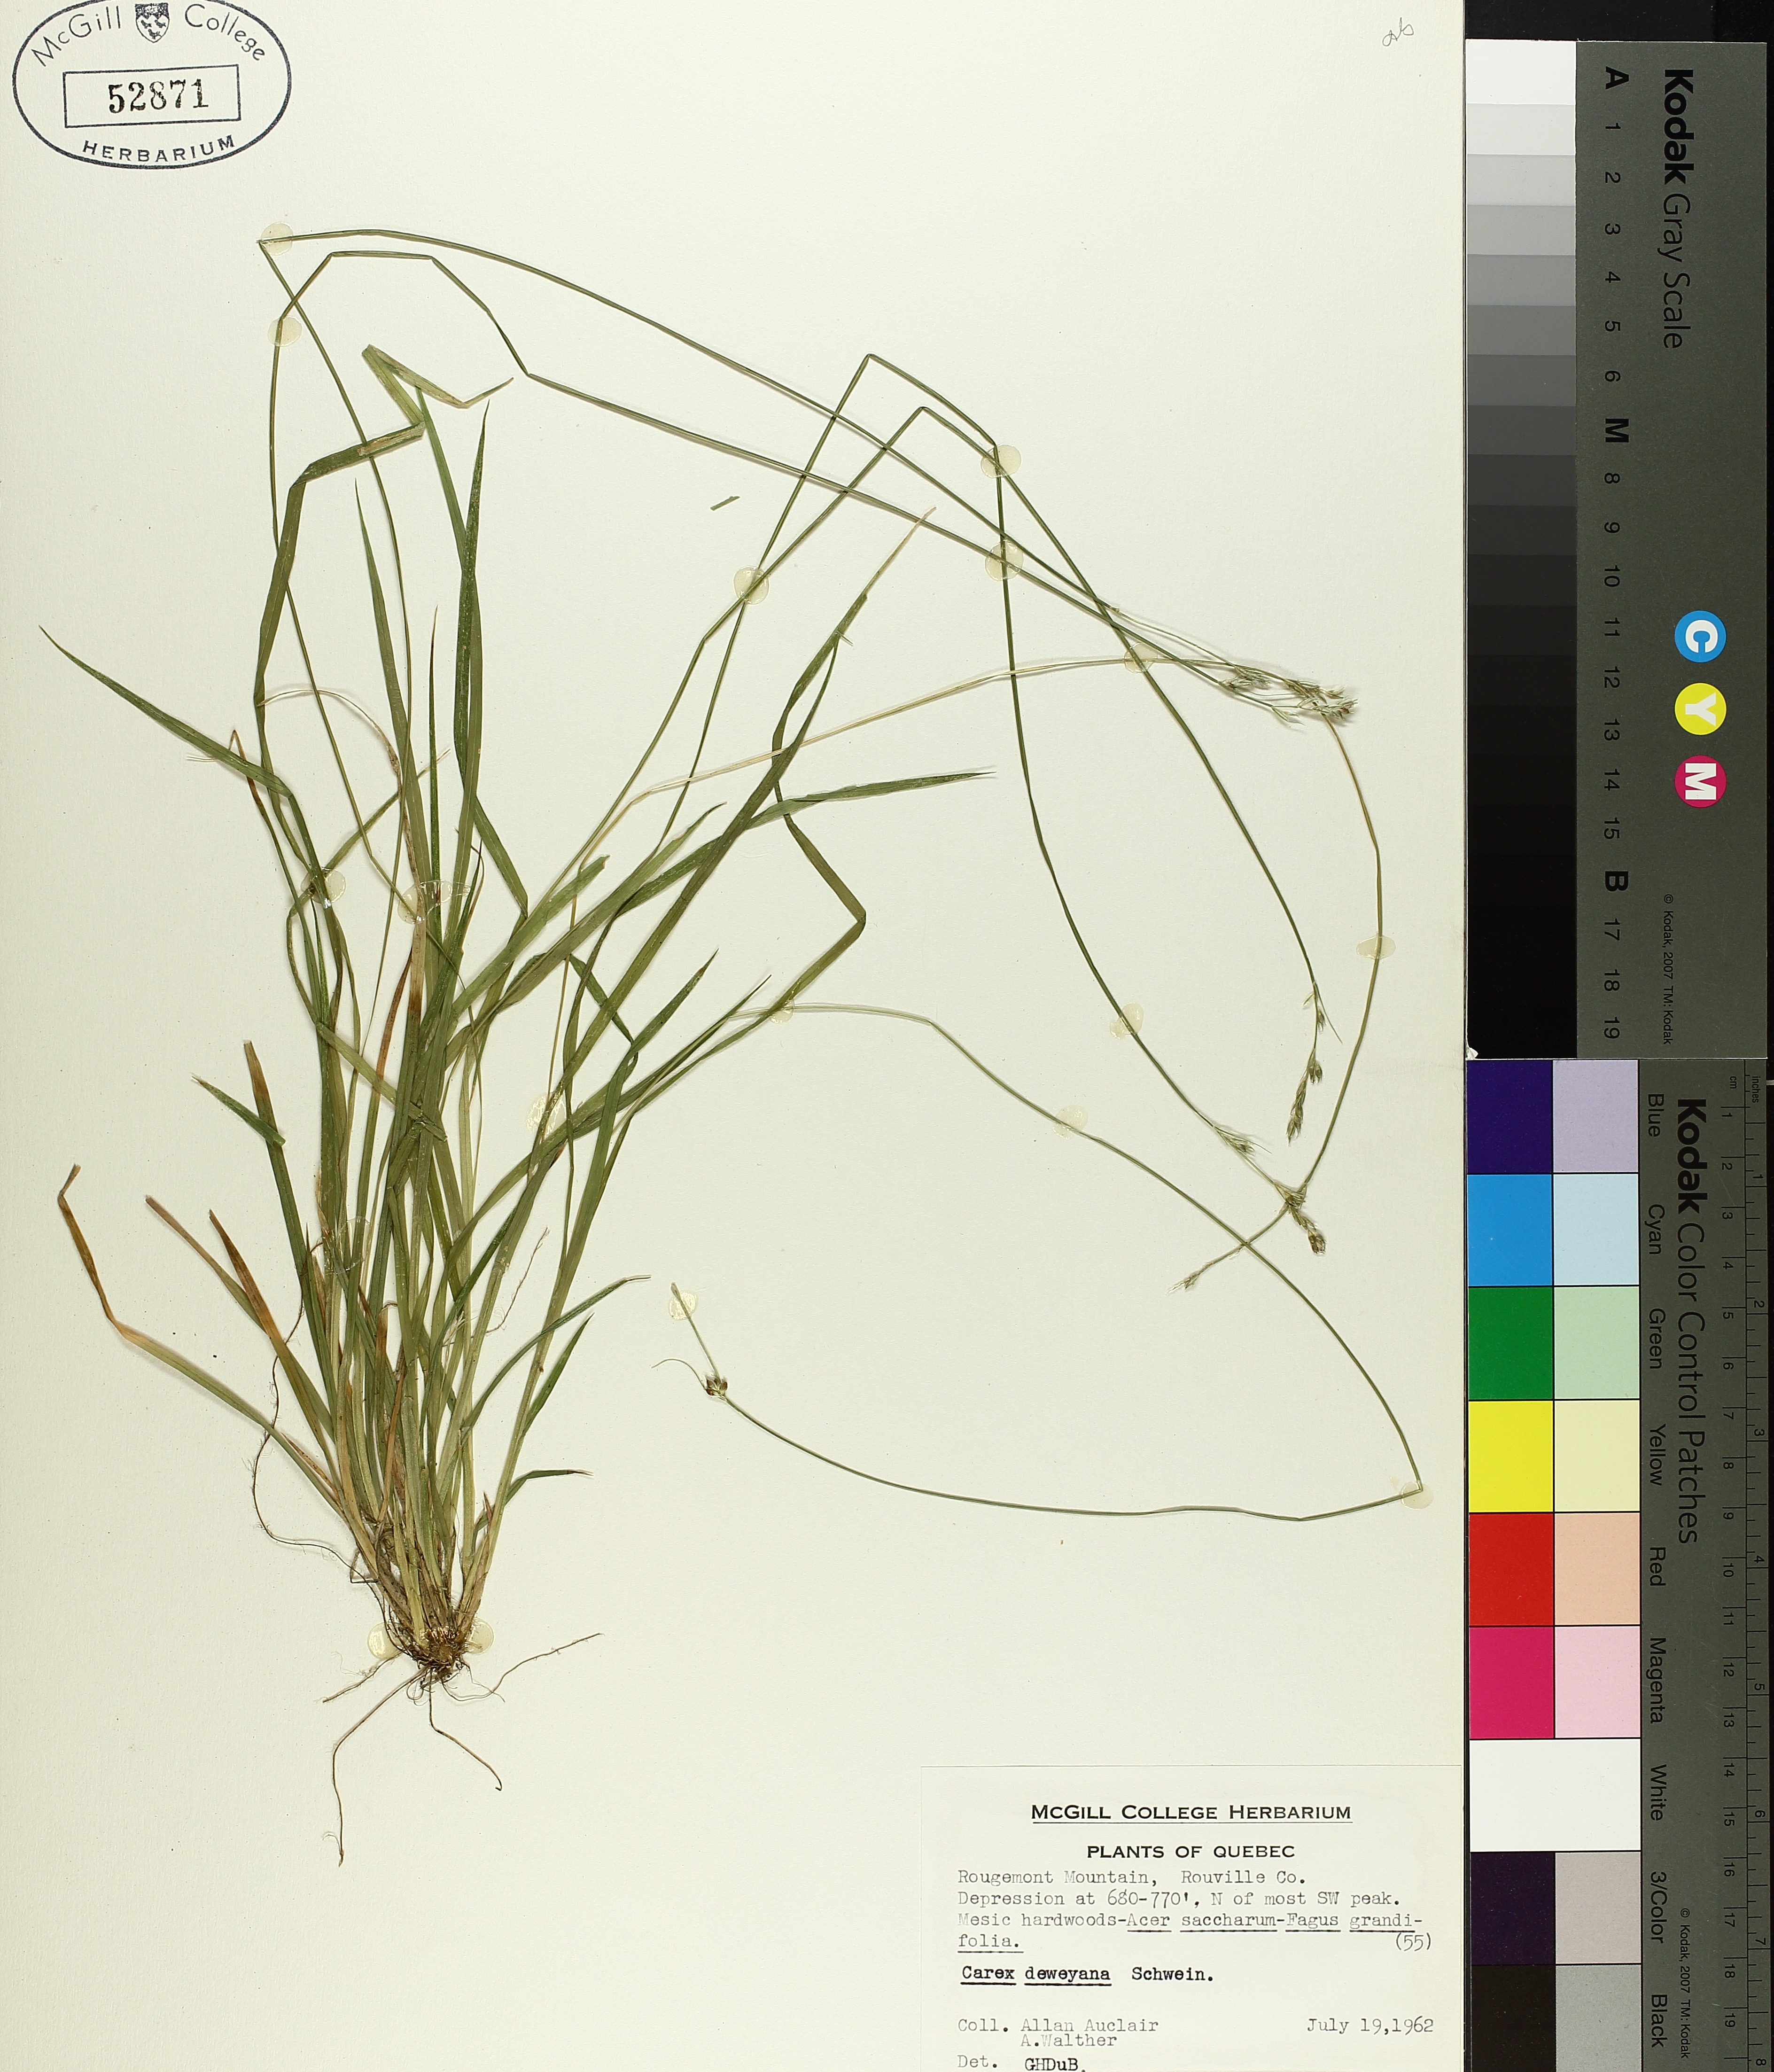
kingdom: Plantae
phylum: Tracheophyta
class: Liliopsida
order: Poales
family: Cyperaceae
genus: Carex
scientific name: Carex deweyana
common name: Dewey's sedge
